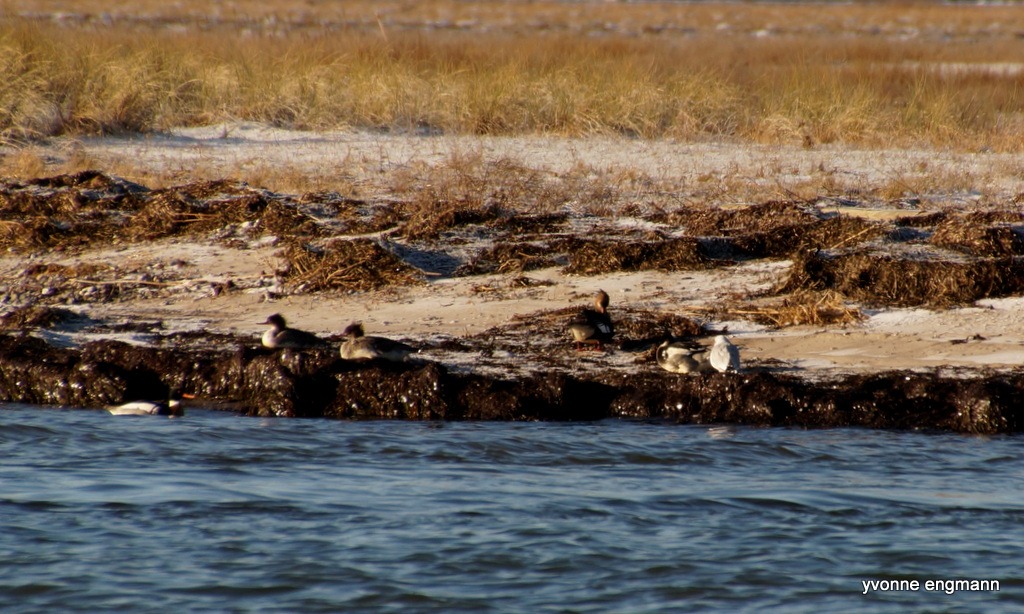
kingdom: Animalia
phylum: Chordata
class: Aves
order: Anseriformes
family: Anatidae
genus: Mergus
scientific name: Mergus serrator
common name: Toppet skallesluger
